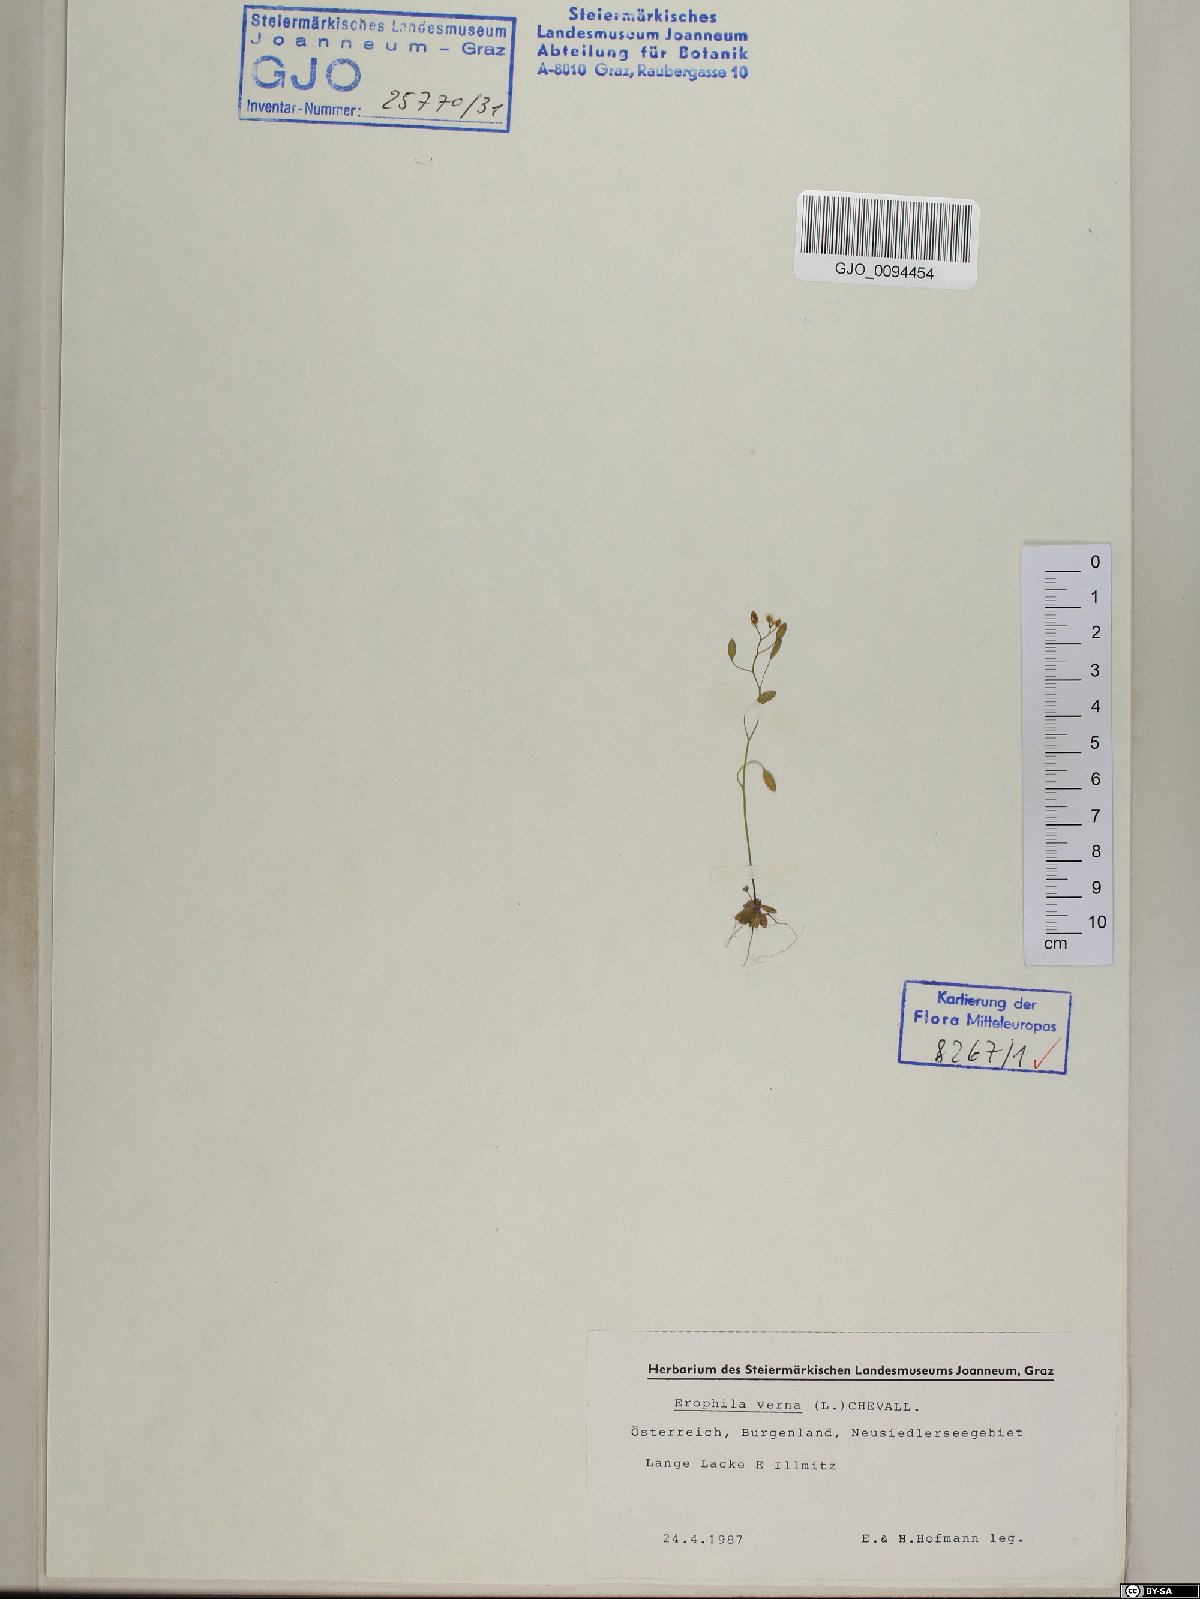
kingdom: Plantae
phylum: Tracheophyta
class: Magnoliopsida
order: Brassicales
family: Brassicaceae
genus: Draba
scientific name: Draba verna
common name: Spring draba
